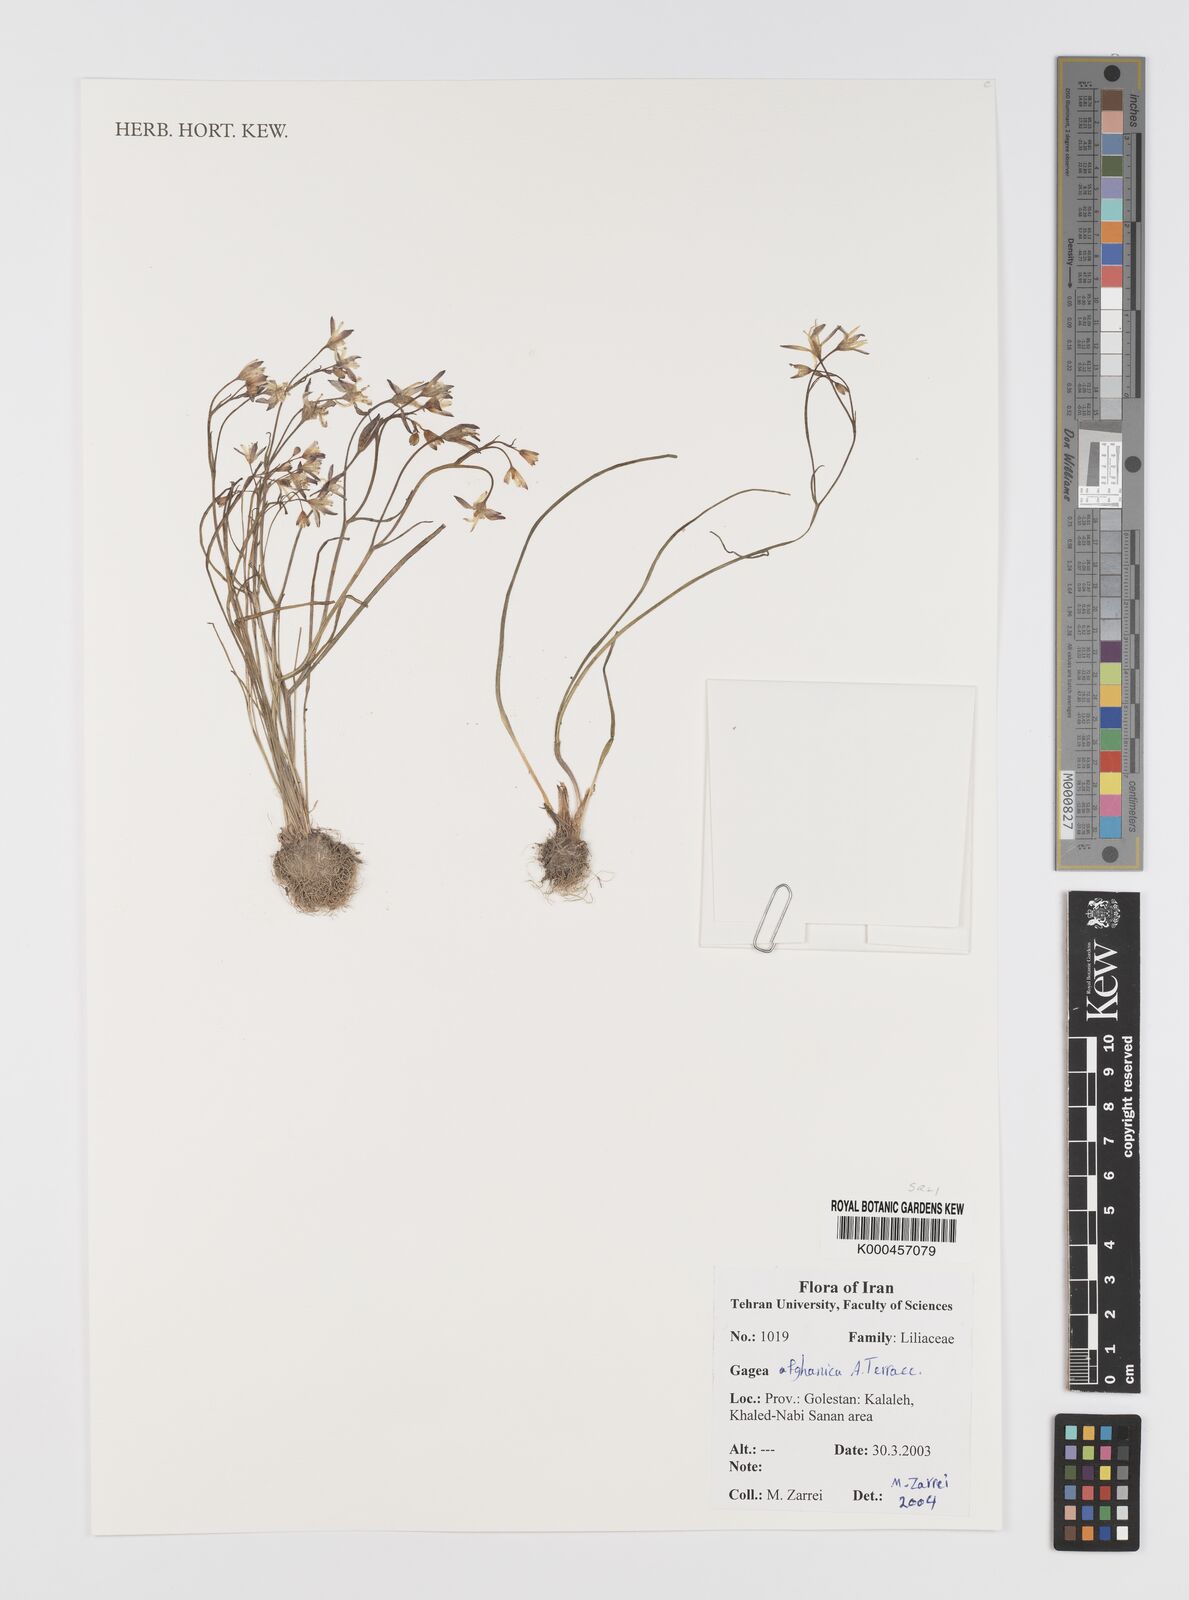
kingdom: Plantae
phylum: Tracheophyta
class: Liliopsida
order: Liliales
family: Liliaceae
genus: Gagea
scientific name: Gagea afghanica
